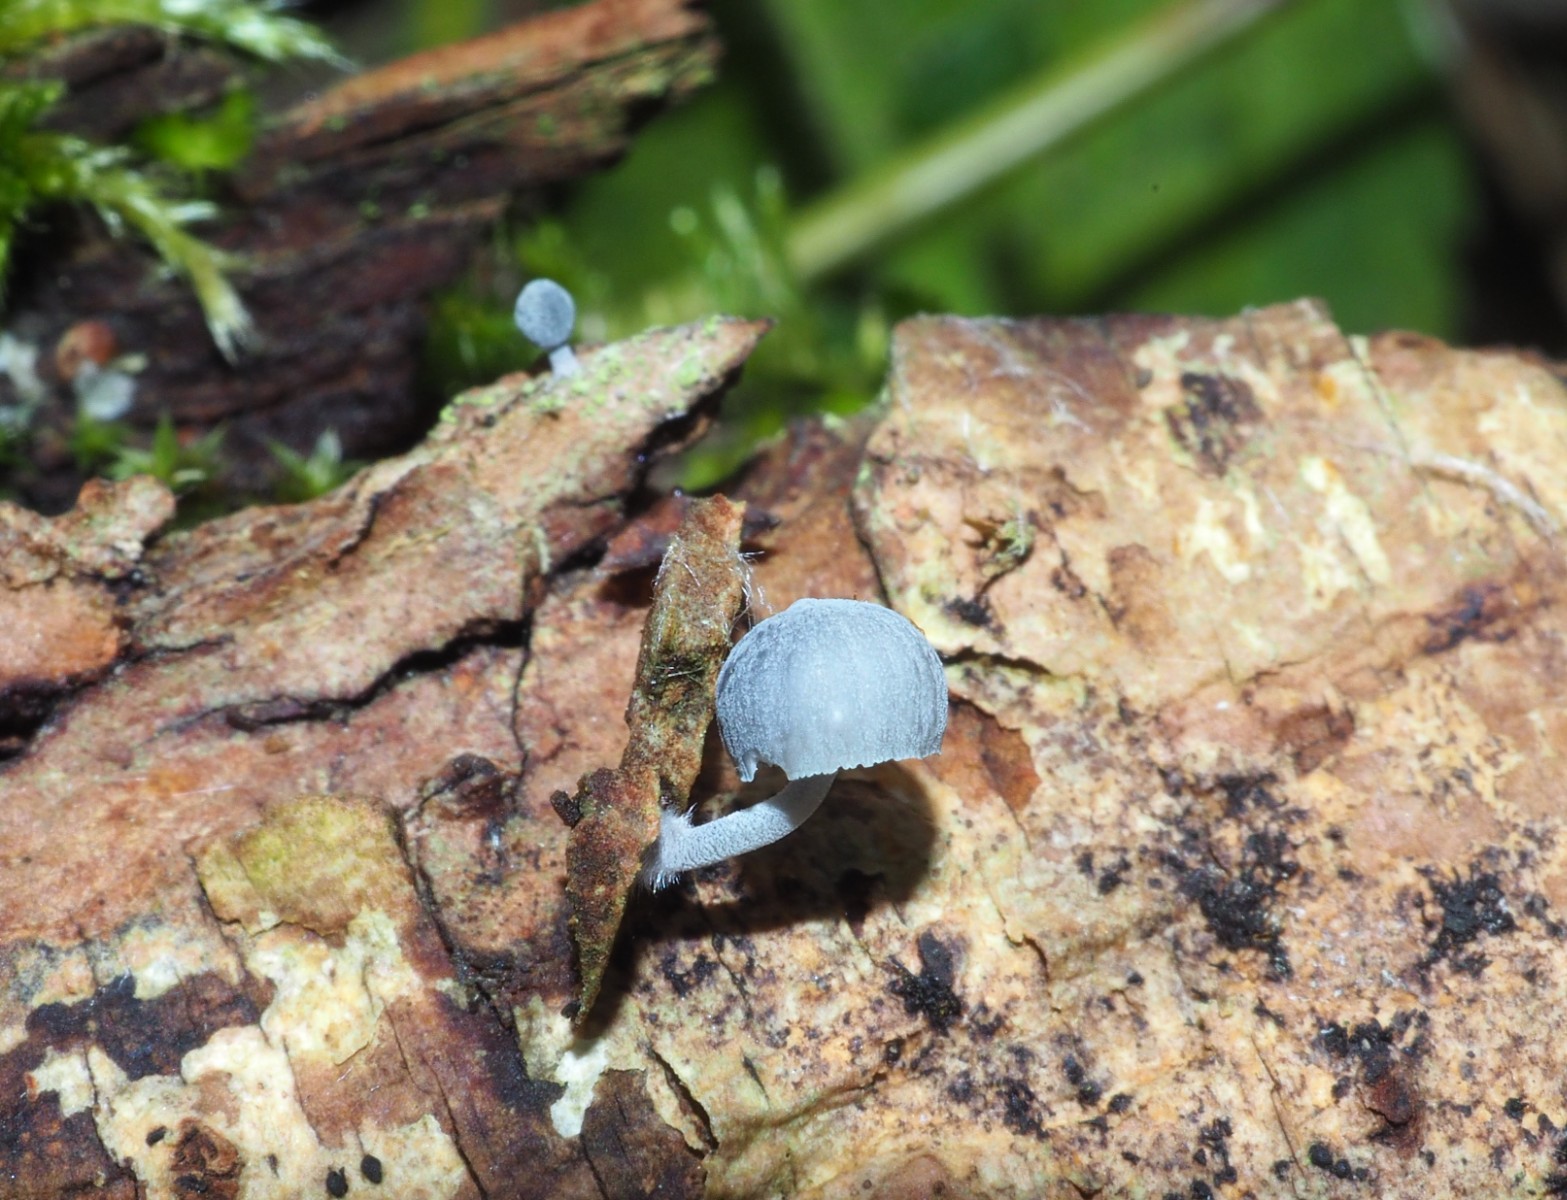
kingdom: Fungi
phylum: Basidiomycota
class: Agaricomycetes
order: Agaricales
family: Mycenaceae
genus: Mycena
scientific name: Mycena pseudocorticola
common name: gråblå bark-huesvamp
